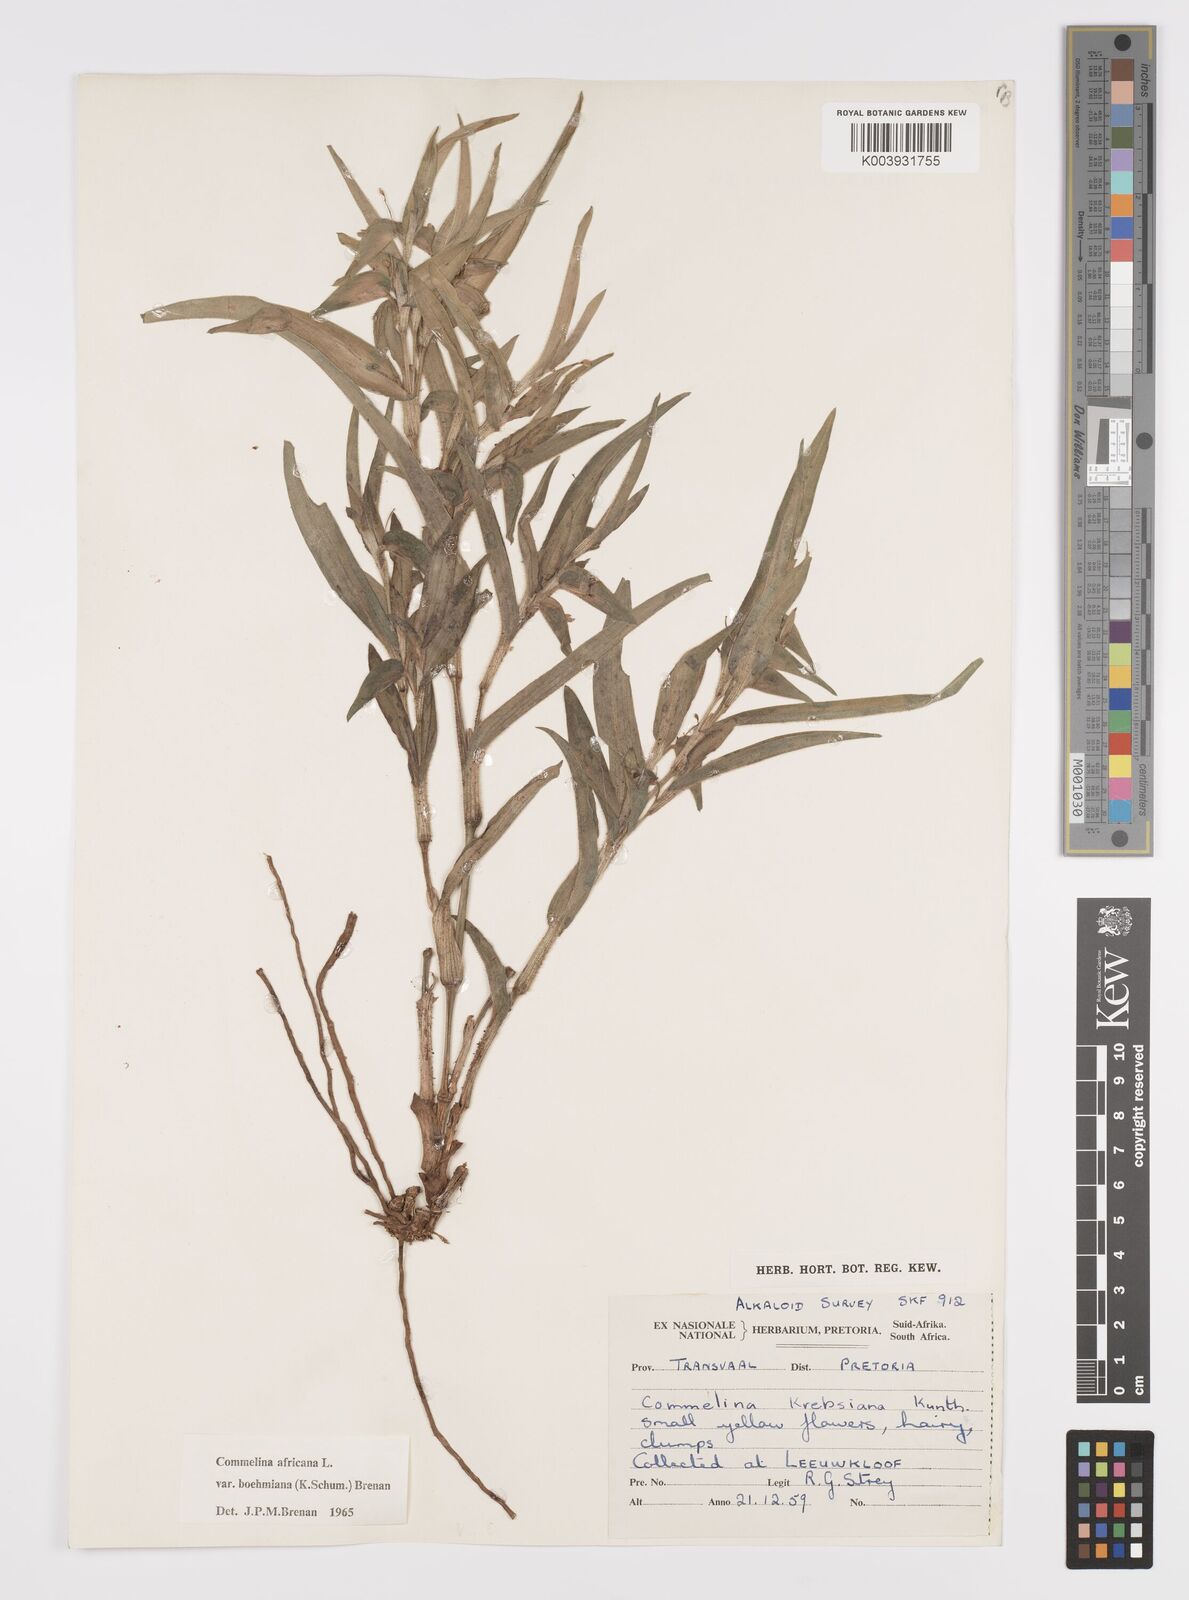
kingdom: Plantae
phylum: Tracheophyta
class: Liliopsida
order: Commelinales
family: Commelinaceae
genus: Commelina
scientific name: Commelina africana
